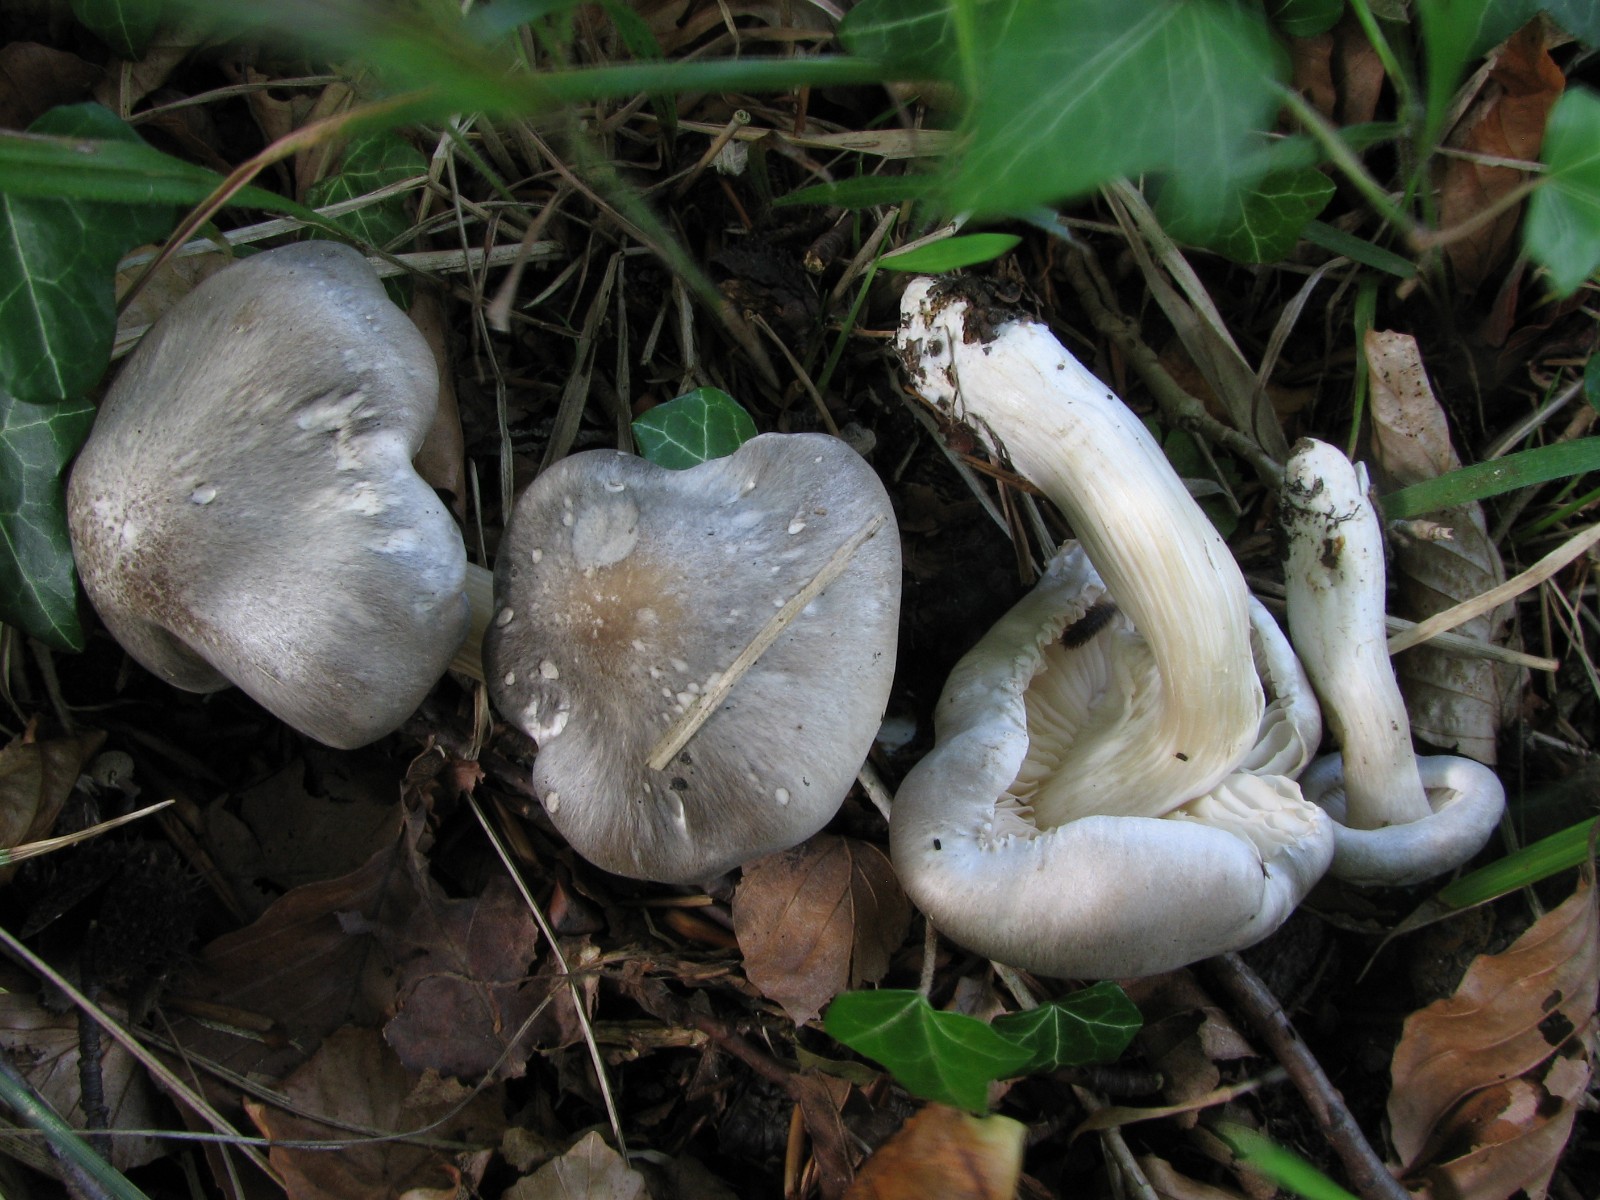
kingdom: Fungi
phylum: Basidiomycota
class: Agaricomycetes
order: Agaricales
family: Tricholomataceae
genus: Tricholoma
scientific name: Tricholoma saponaceum
